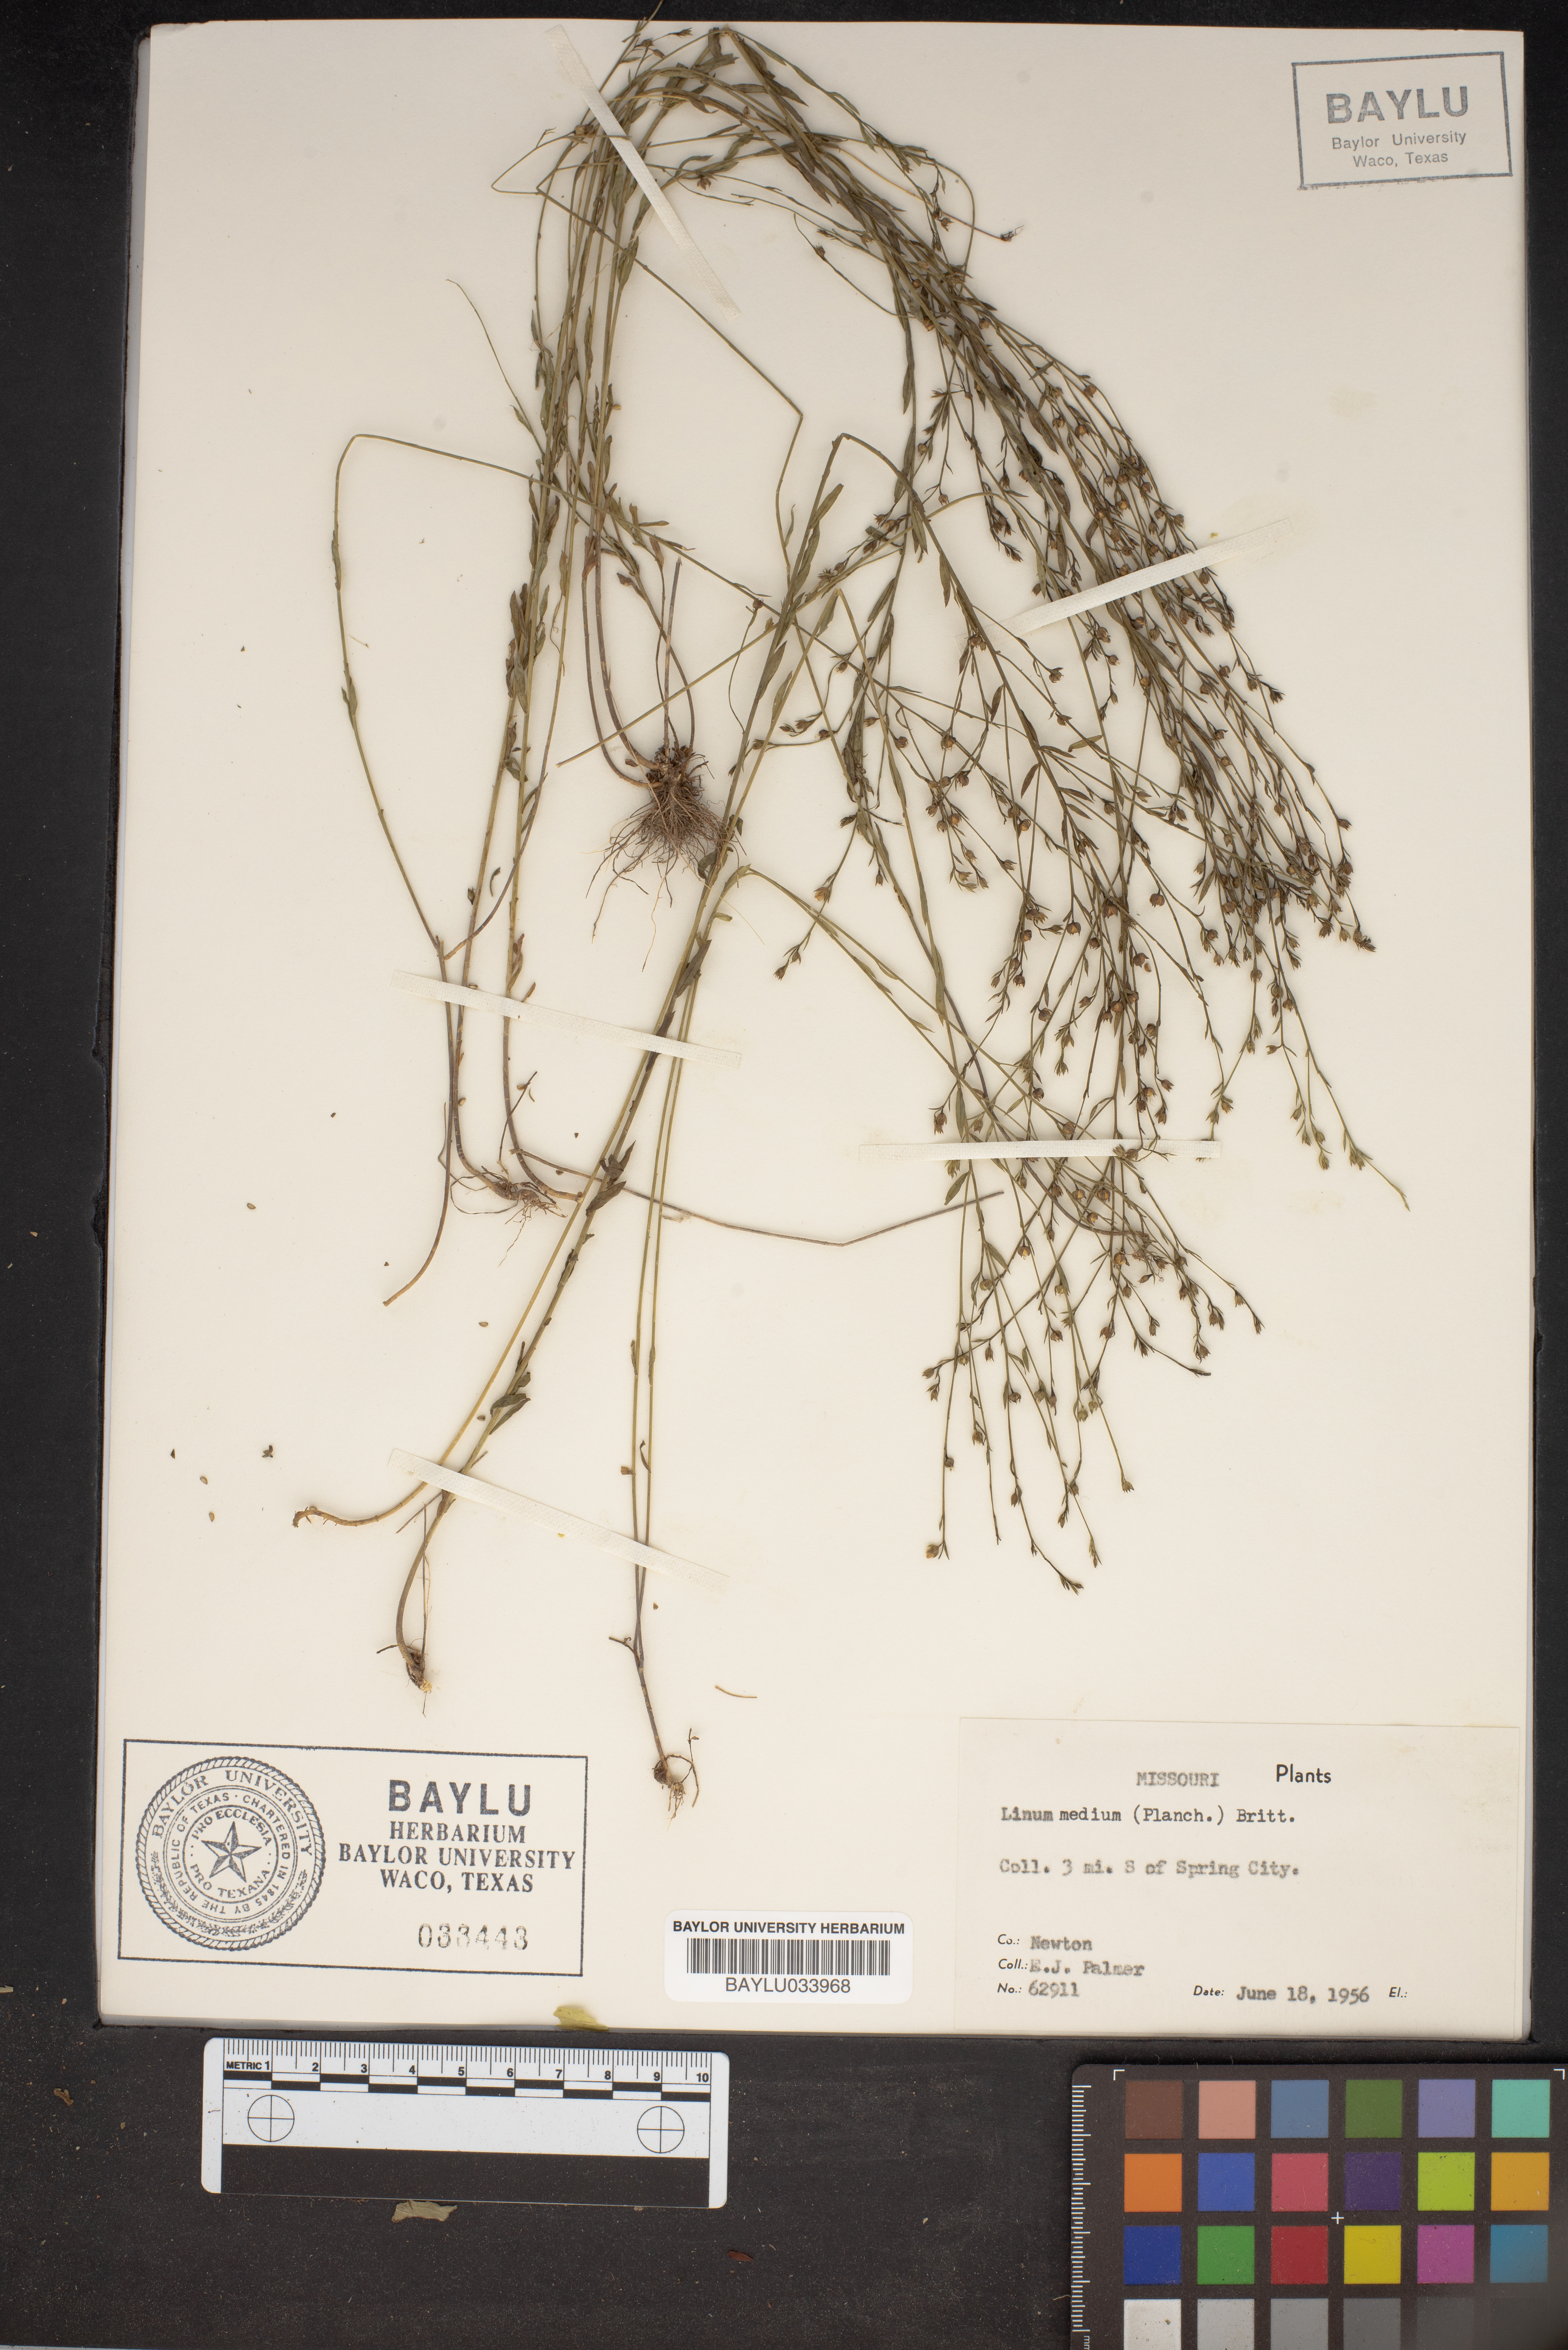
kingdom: Plantae
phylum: Tracheophyta
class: Magnoliopsida
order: Malpighiales
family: Linaceae
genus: Linum
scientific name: Linum medium
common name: Stiff yellow flax
